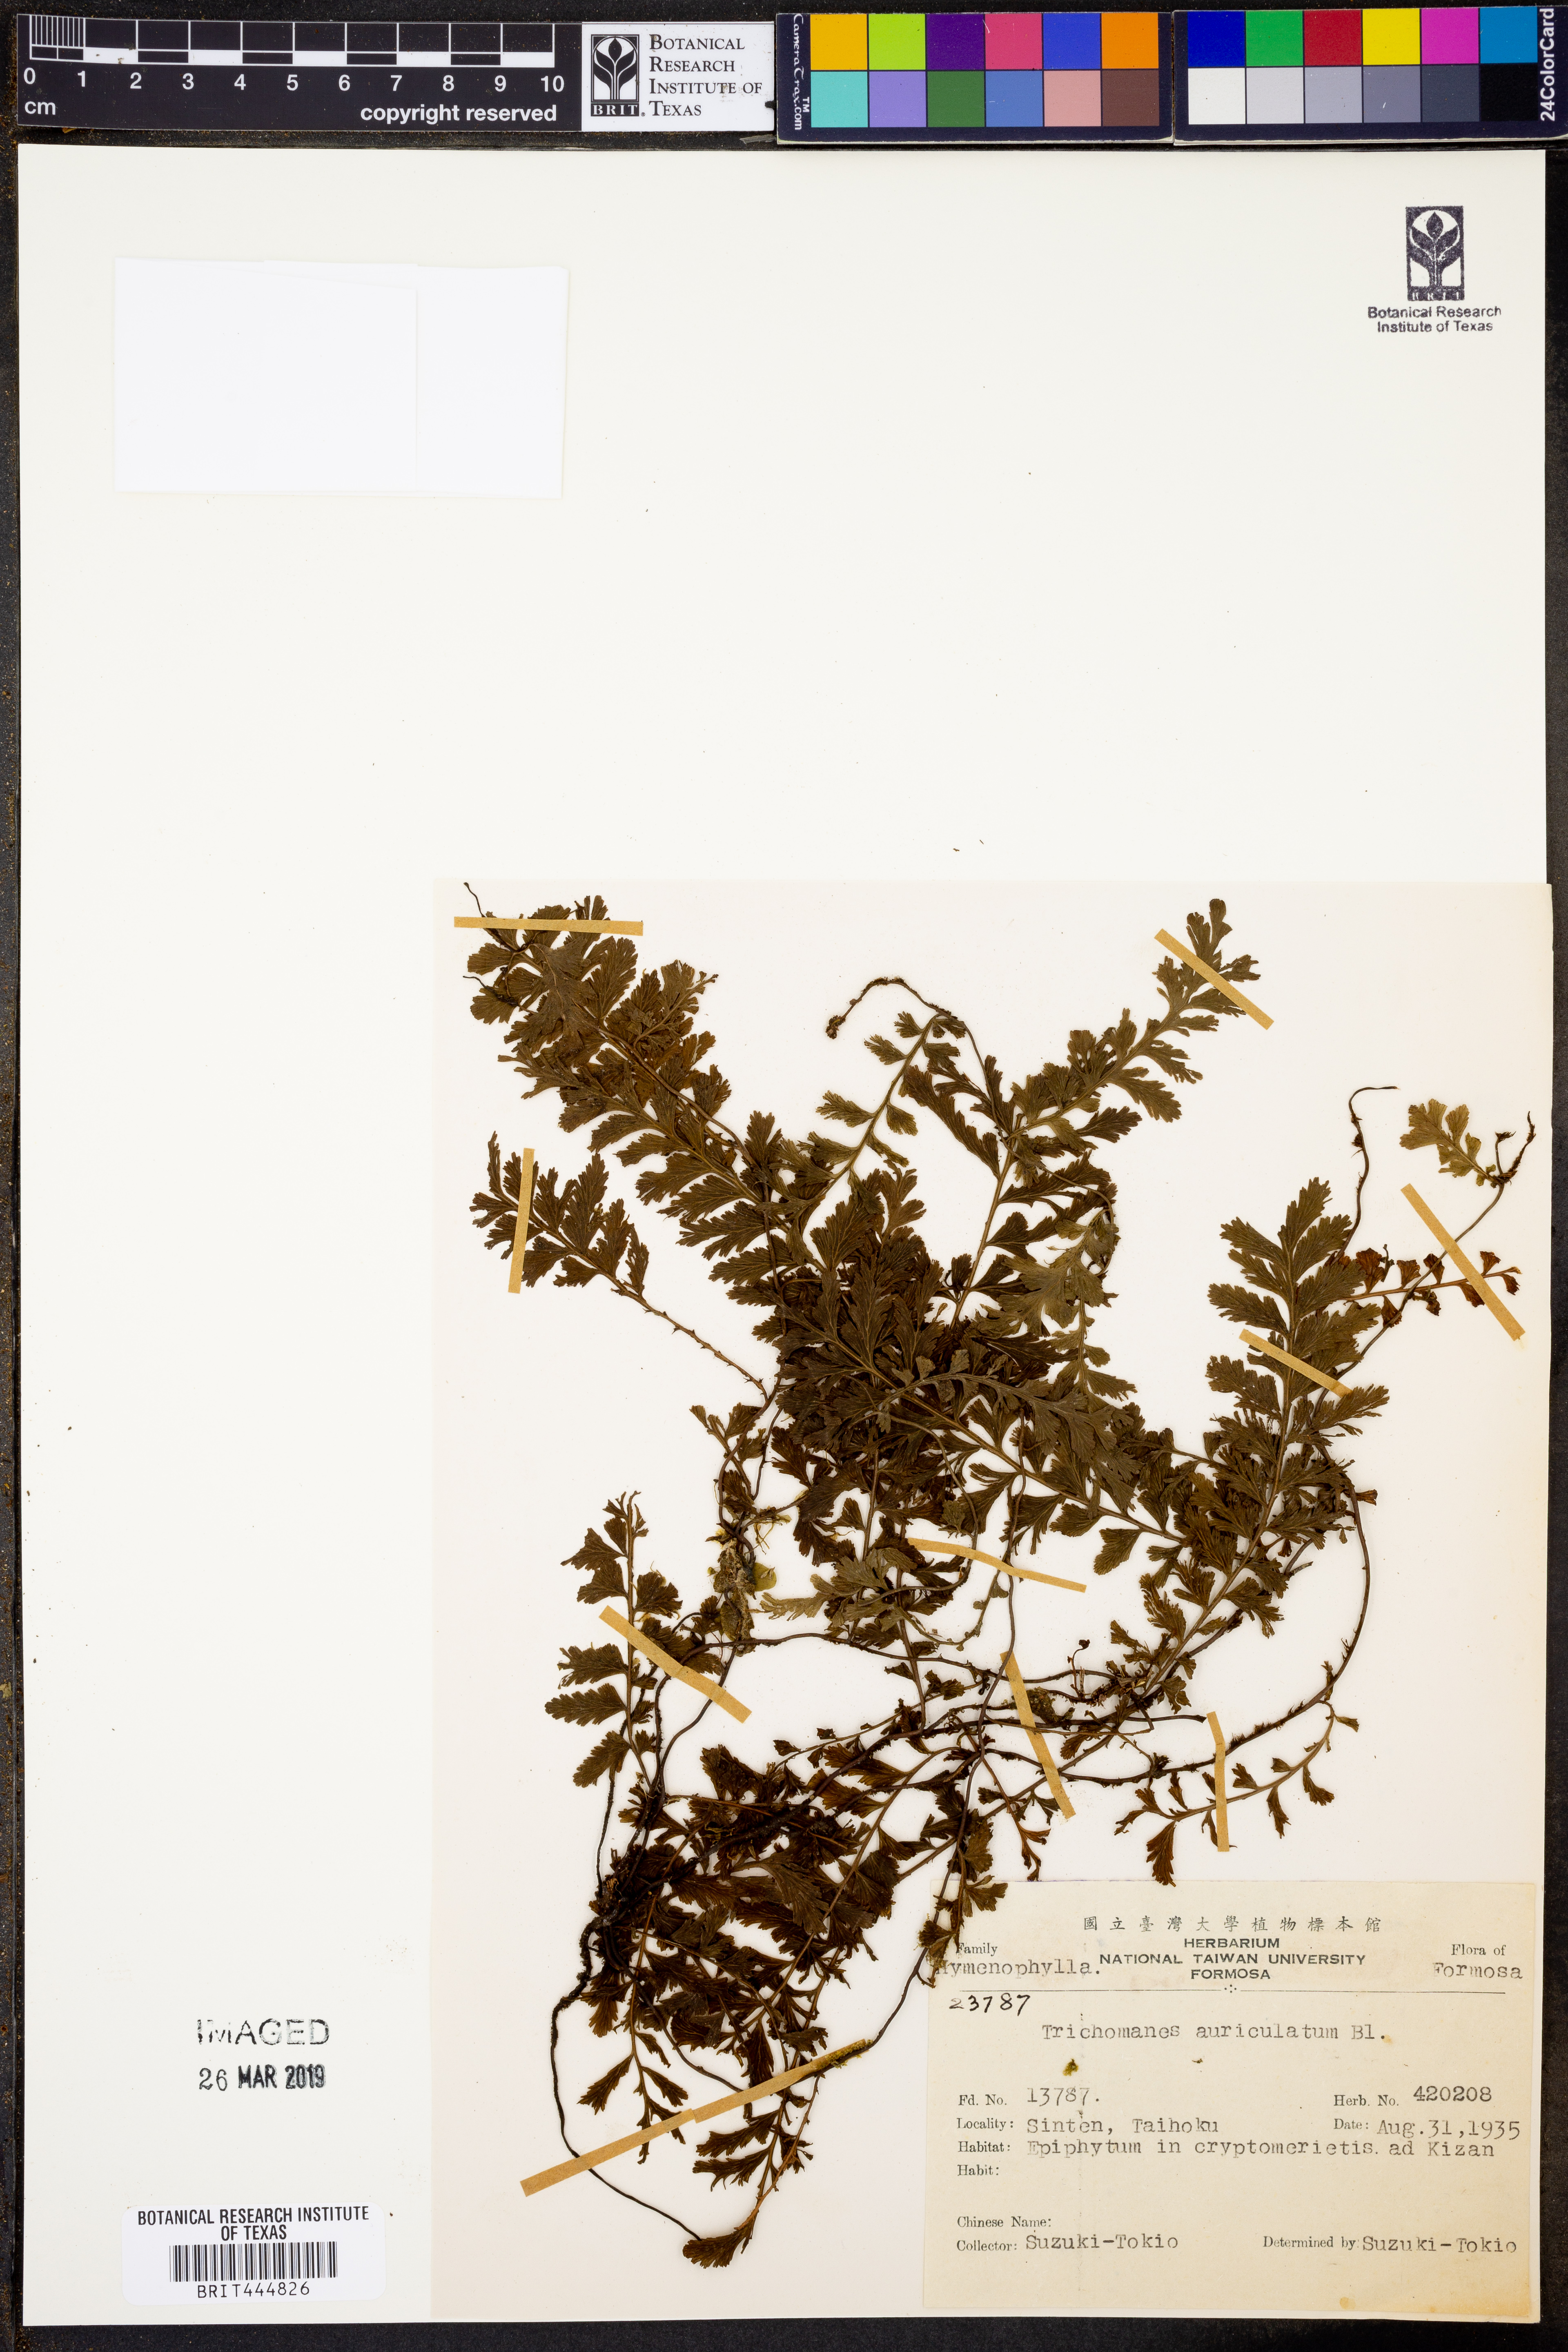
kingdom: Plantae
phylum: Tracheophyta
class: Polypodiopsida
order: Hymenophyllales
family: Hymenophyllaceae
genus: Vandenboschia
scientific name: Vandenboschia auriculata
